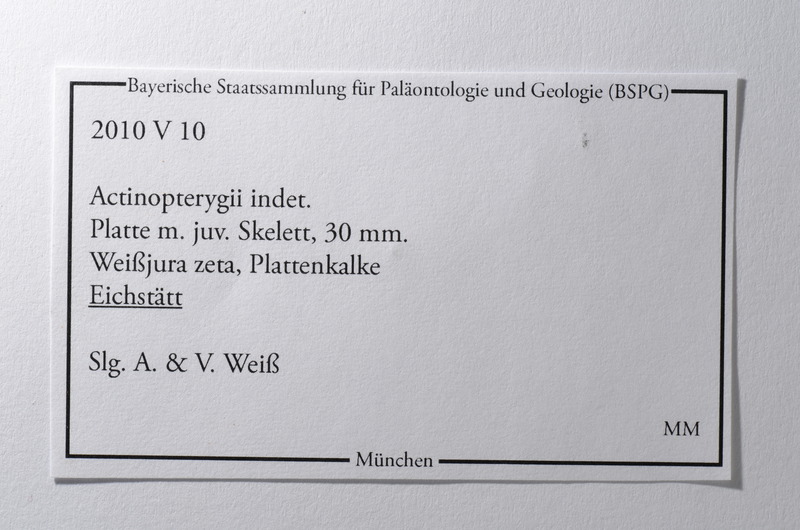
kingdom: Animalia
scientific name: Animalia
